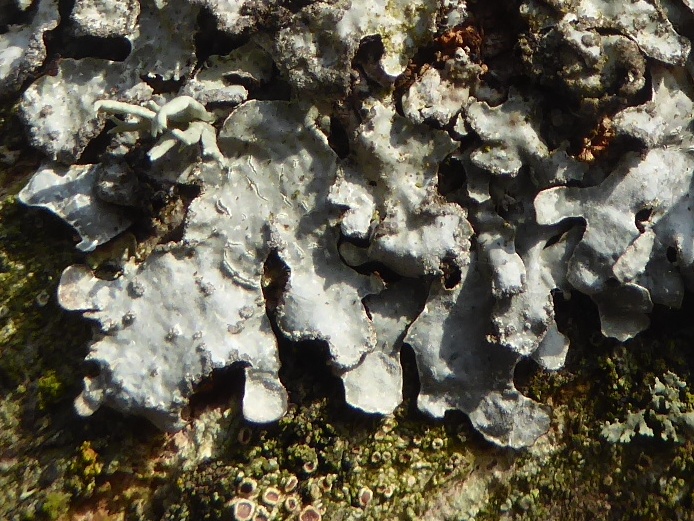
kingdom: Fungi
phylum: Ascomycota
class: Lecanoromycetes
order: Lecanorales
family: Parmeliaceae
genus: Parmelia
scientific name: Parmelia sulcata
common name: rynket skållav
